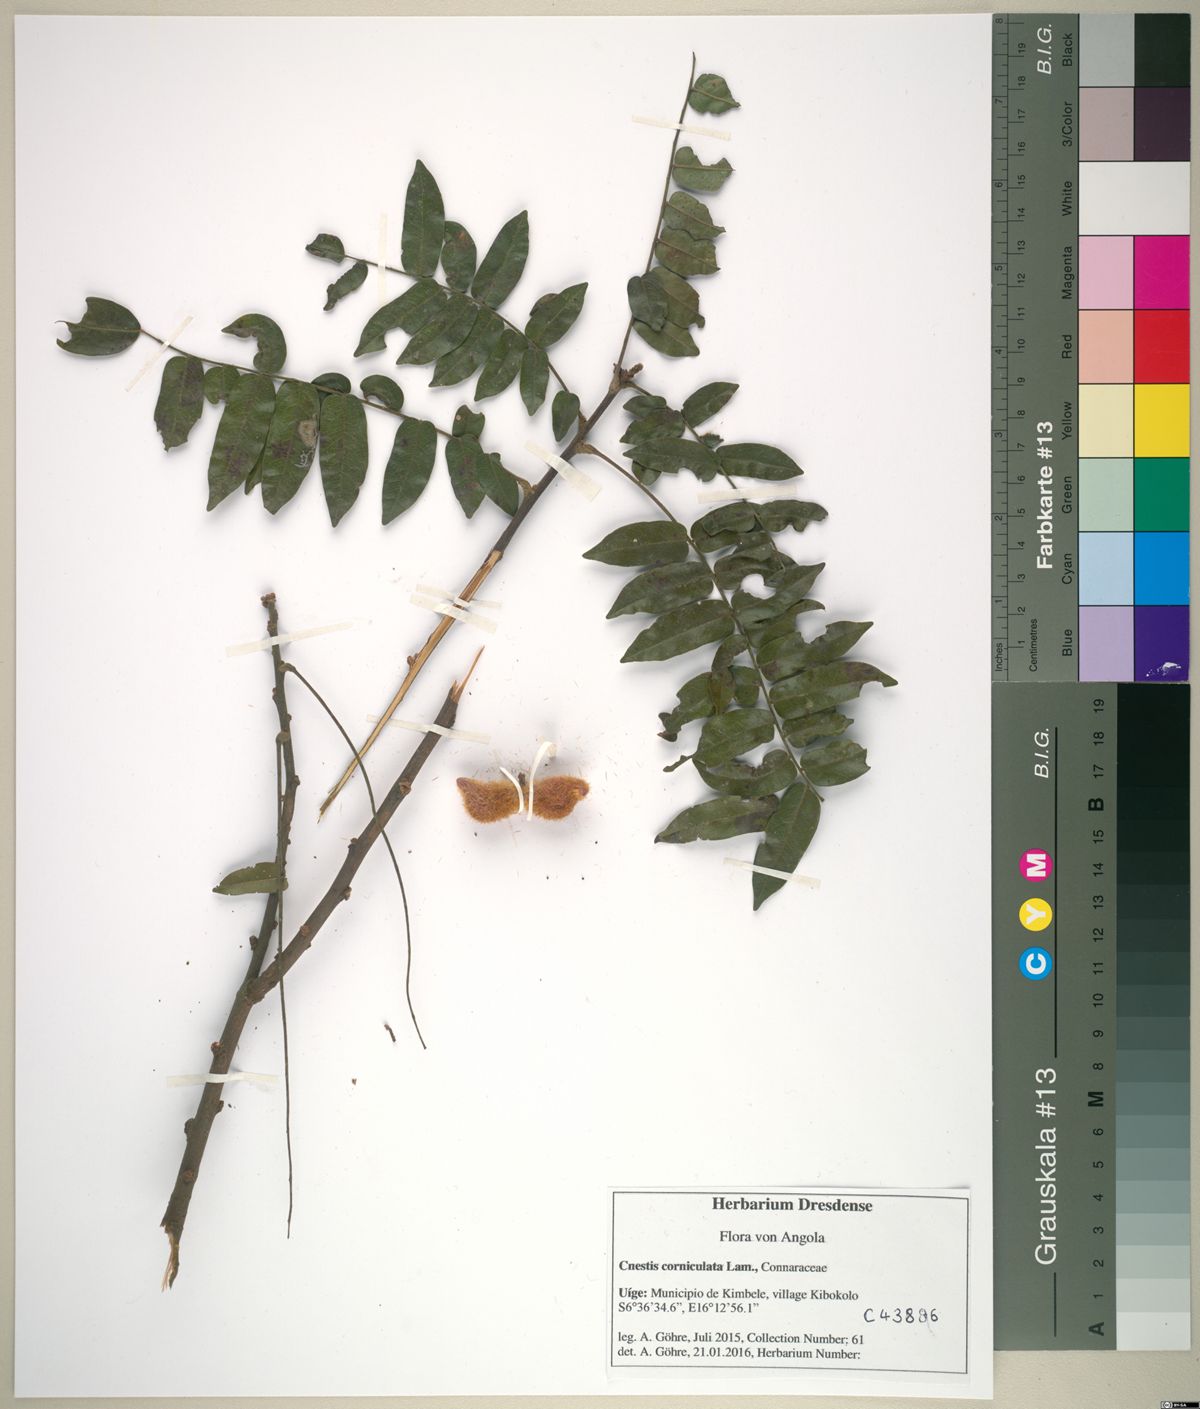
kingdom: Plantae
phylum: Tracheophyta
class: Magnoliopsida
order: Oxalidales
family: Connaraceae
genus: Cnestis
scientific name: Cnestis corniculata
